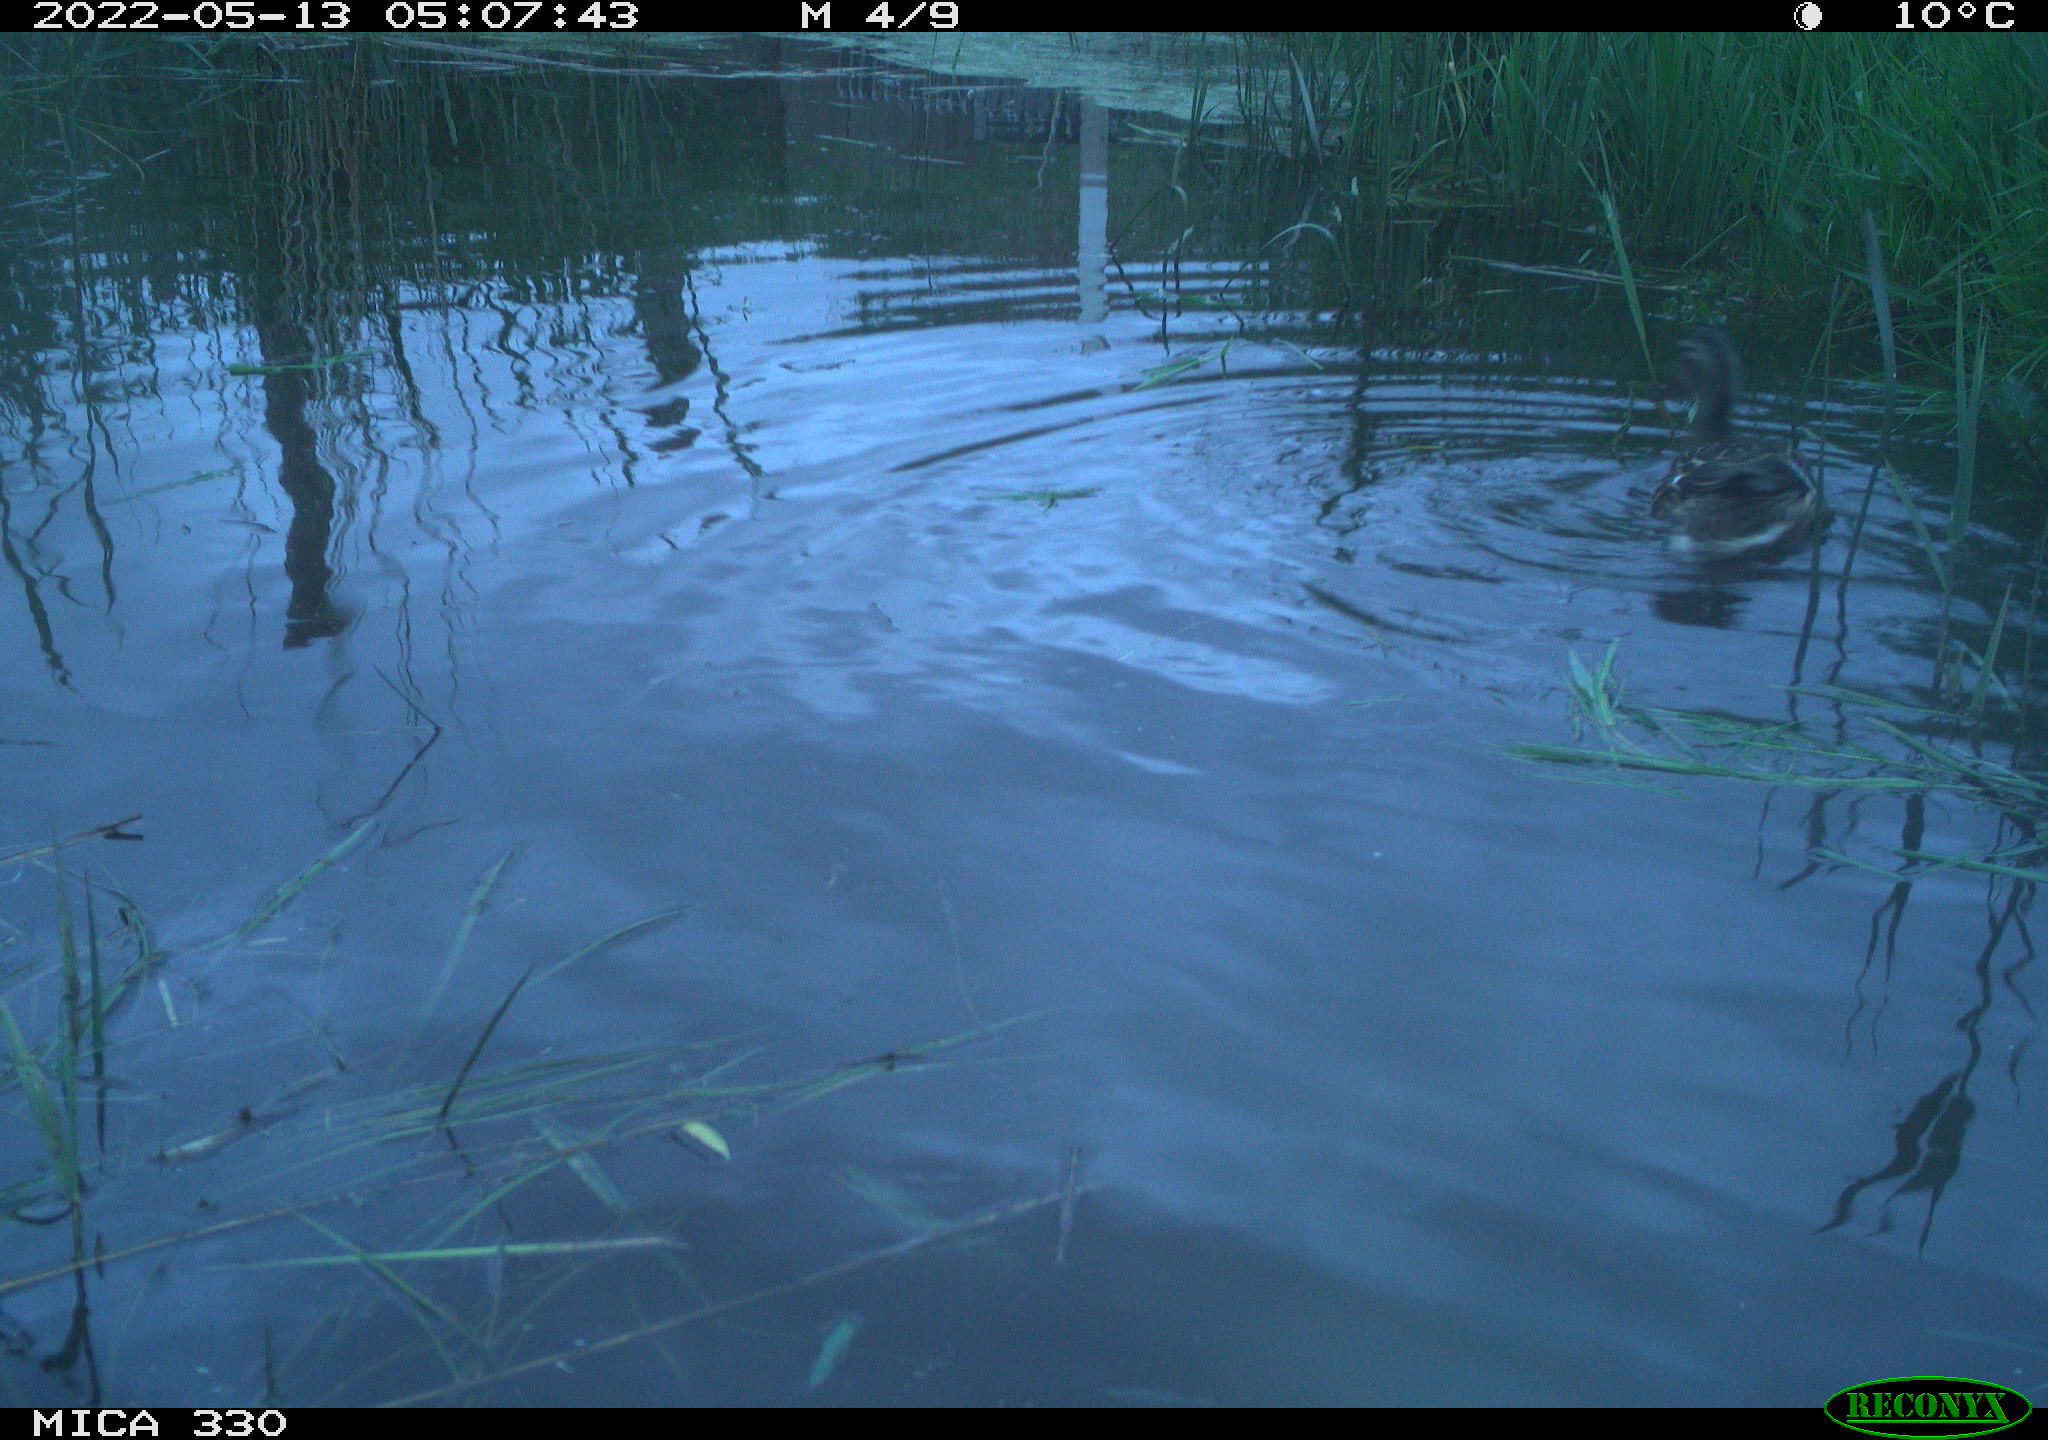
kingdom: Animalia
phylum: Chordata
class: Aves
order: Anseriformes
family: Anatidae
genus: Anas
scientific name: Anas platyrhynchos
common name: Mallard
